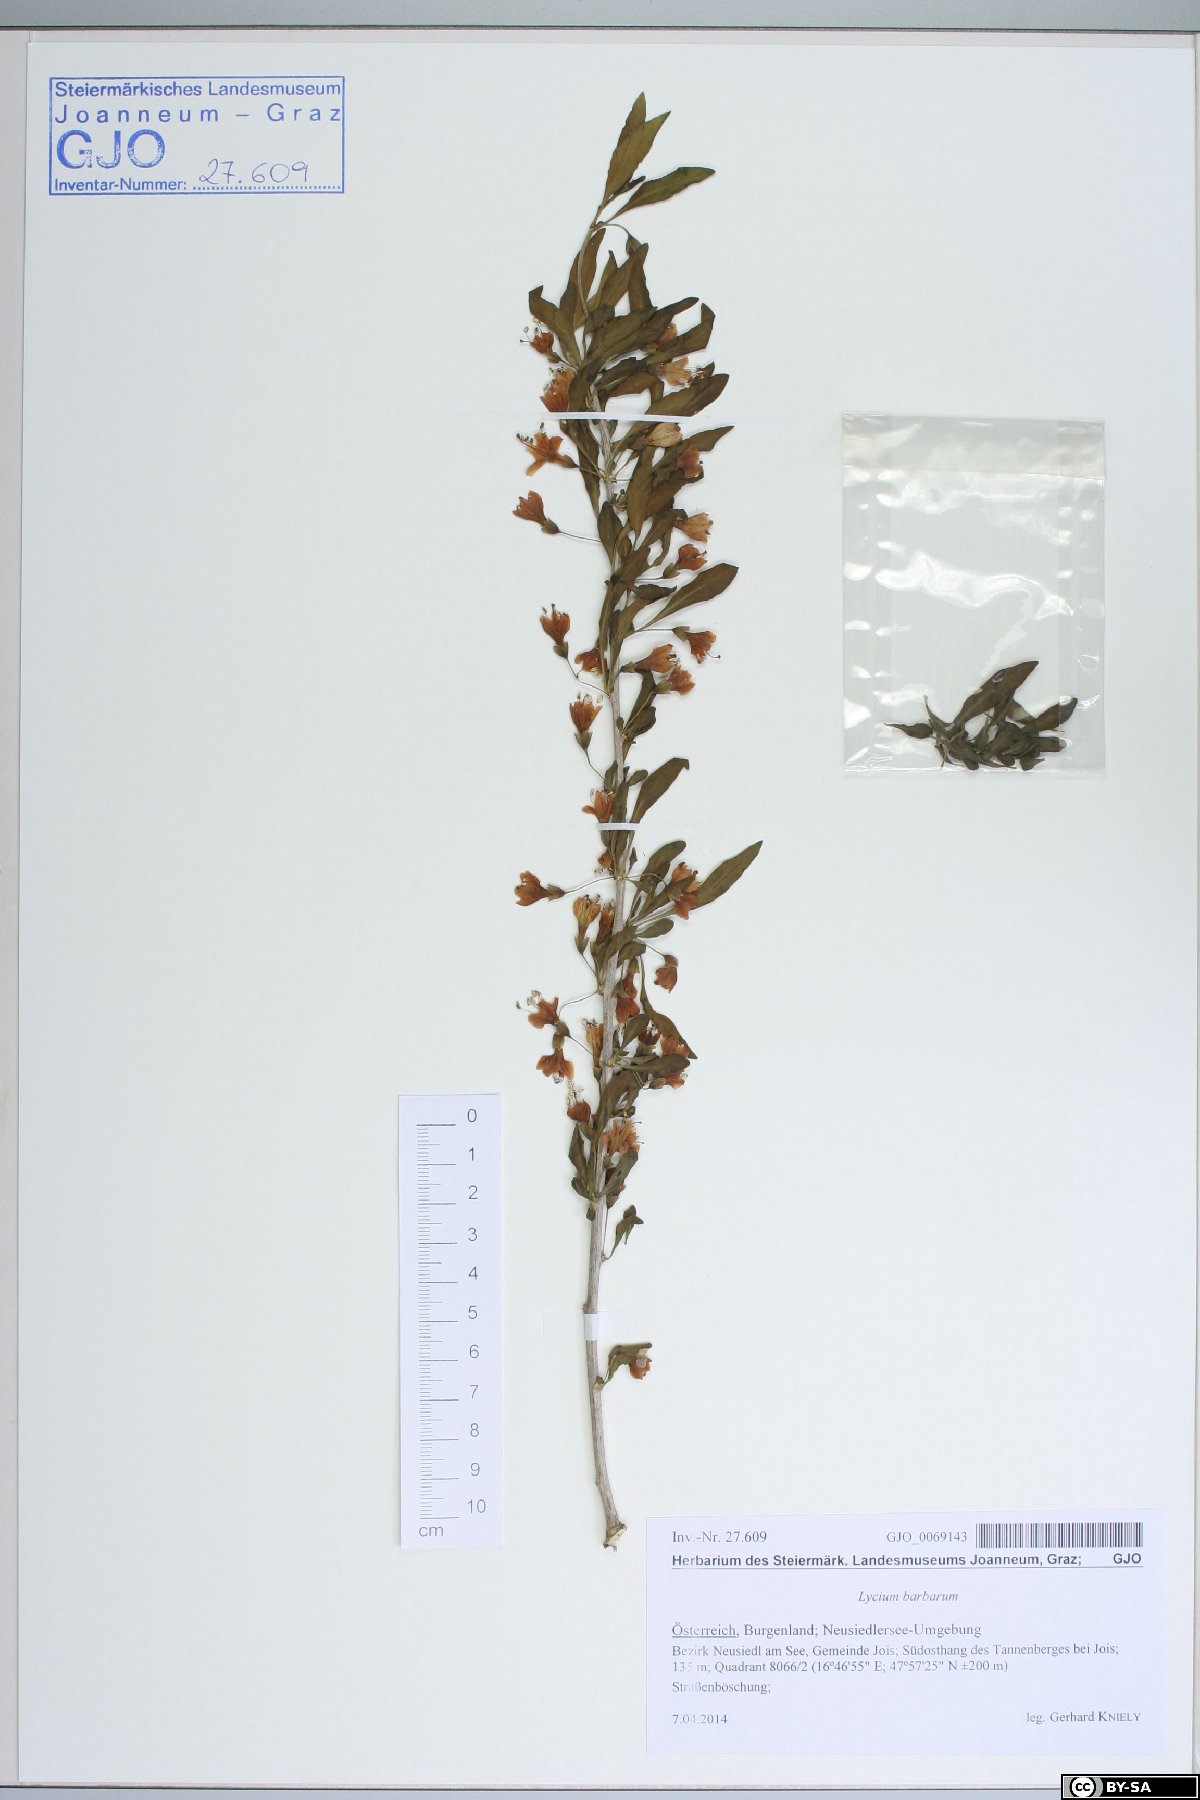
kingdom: Plantae
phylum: Tracheophyta
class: Magnoliopsida
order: Solanales
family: Solanaceae
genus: Lycium
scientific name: Lycium barbarum
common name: Duke of argyll's teaplant
